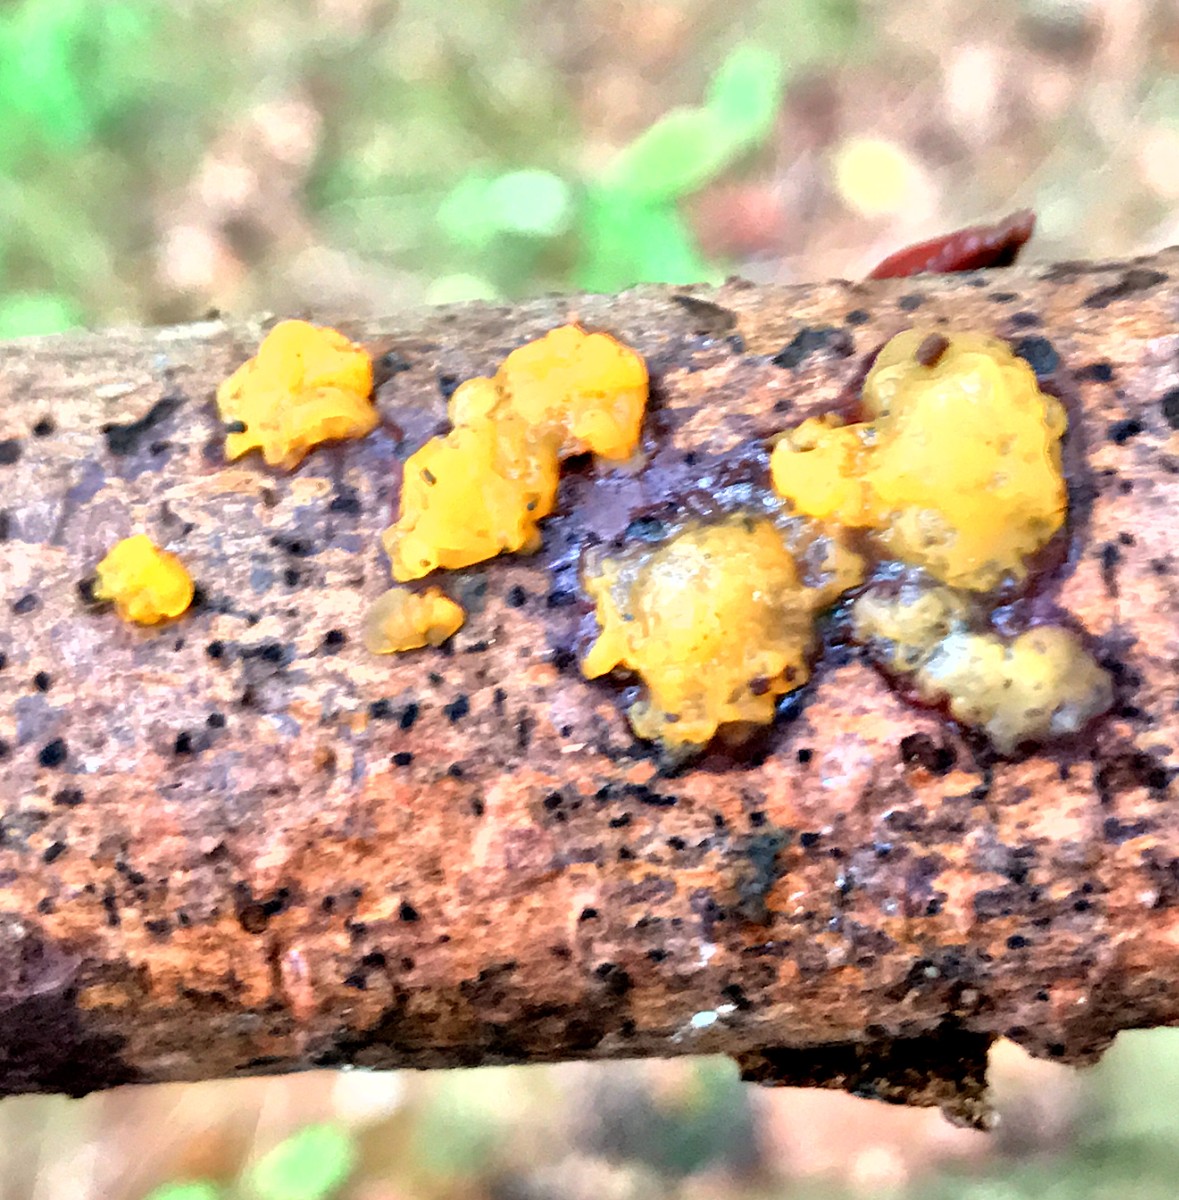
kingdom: Fungi
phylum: Basidiomycota
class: Dacrymycetes
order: Dacrymycetales
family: Dacrymycetaceae
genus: Dacrymyces
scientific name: Dacrymyces stillatus
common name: almindelig tåresvamp
